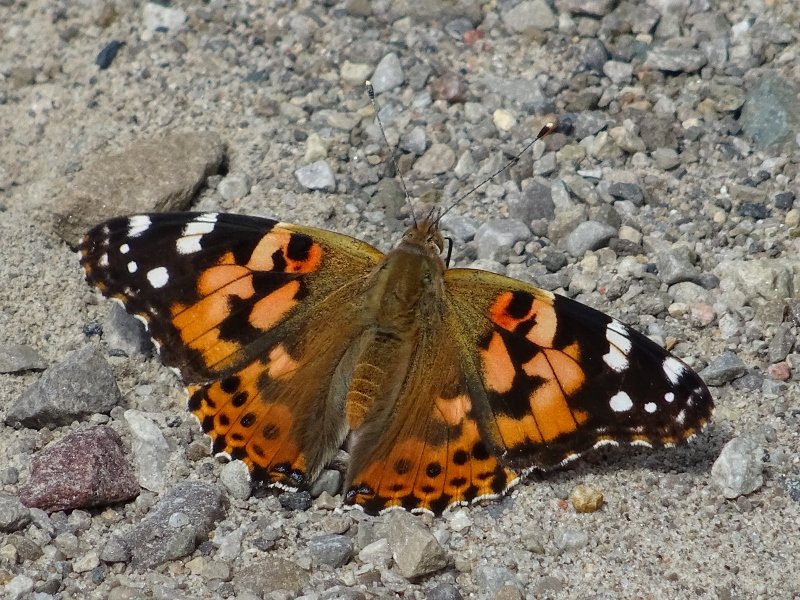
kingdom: Animalia
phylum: Arthropoda
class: Insecta
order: Lepidoptera
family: Nymphalidae
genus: Vanessa
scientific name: Vanessa cardui
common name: Painted Lady
